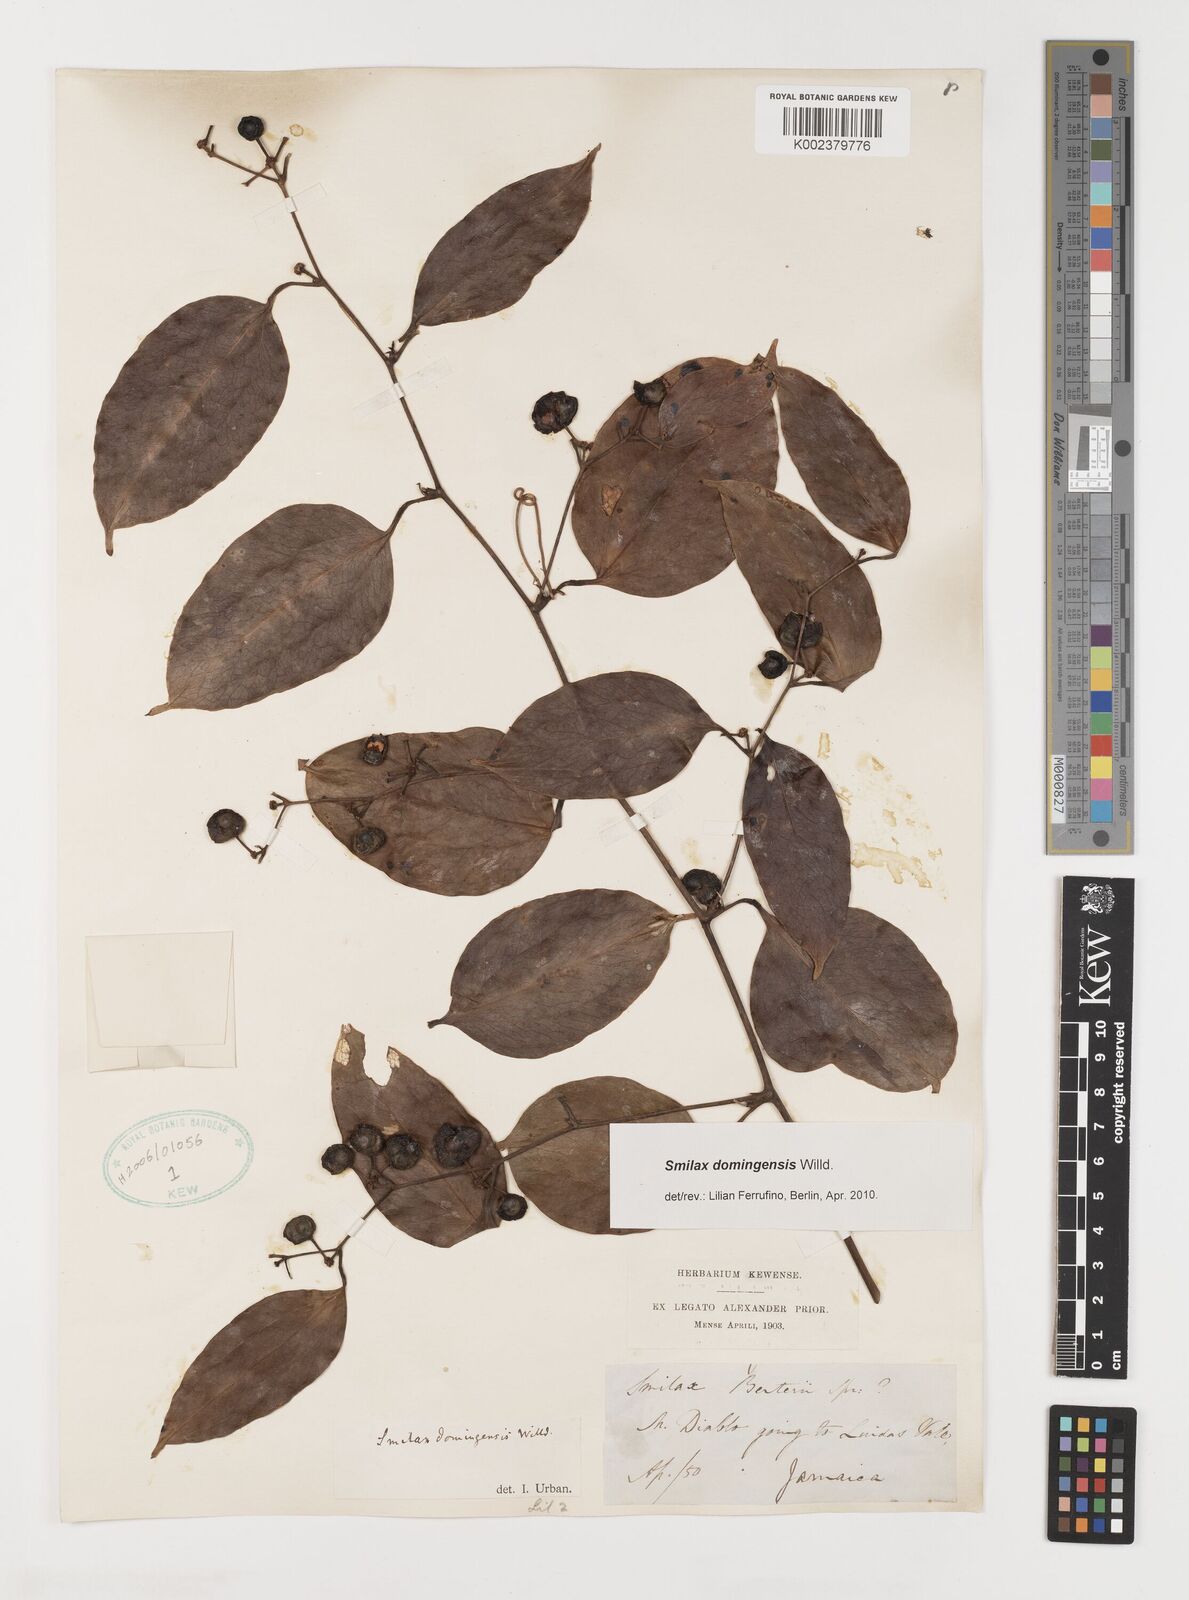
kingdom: Plantae
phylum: Tracheophyta
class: Liliopsida
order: Liliales
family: Smilacaceae
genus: Smilax
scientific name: Smilax domingensis
